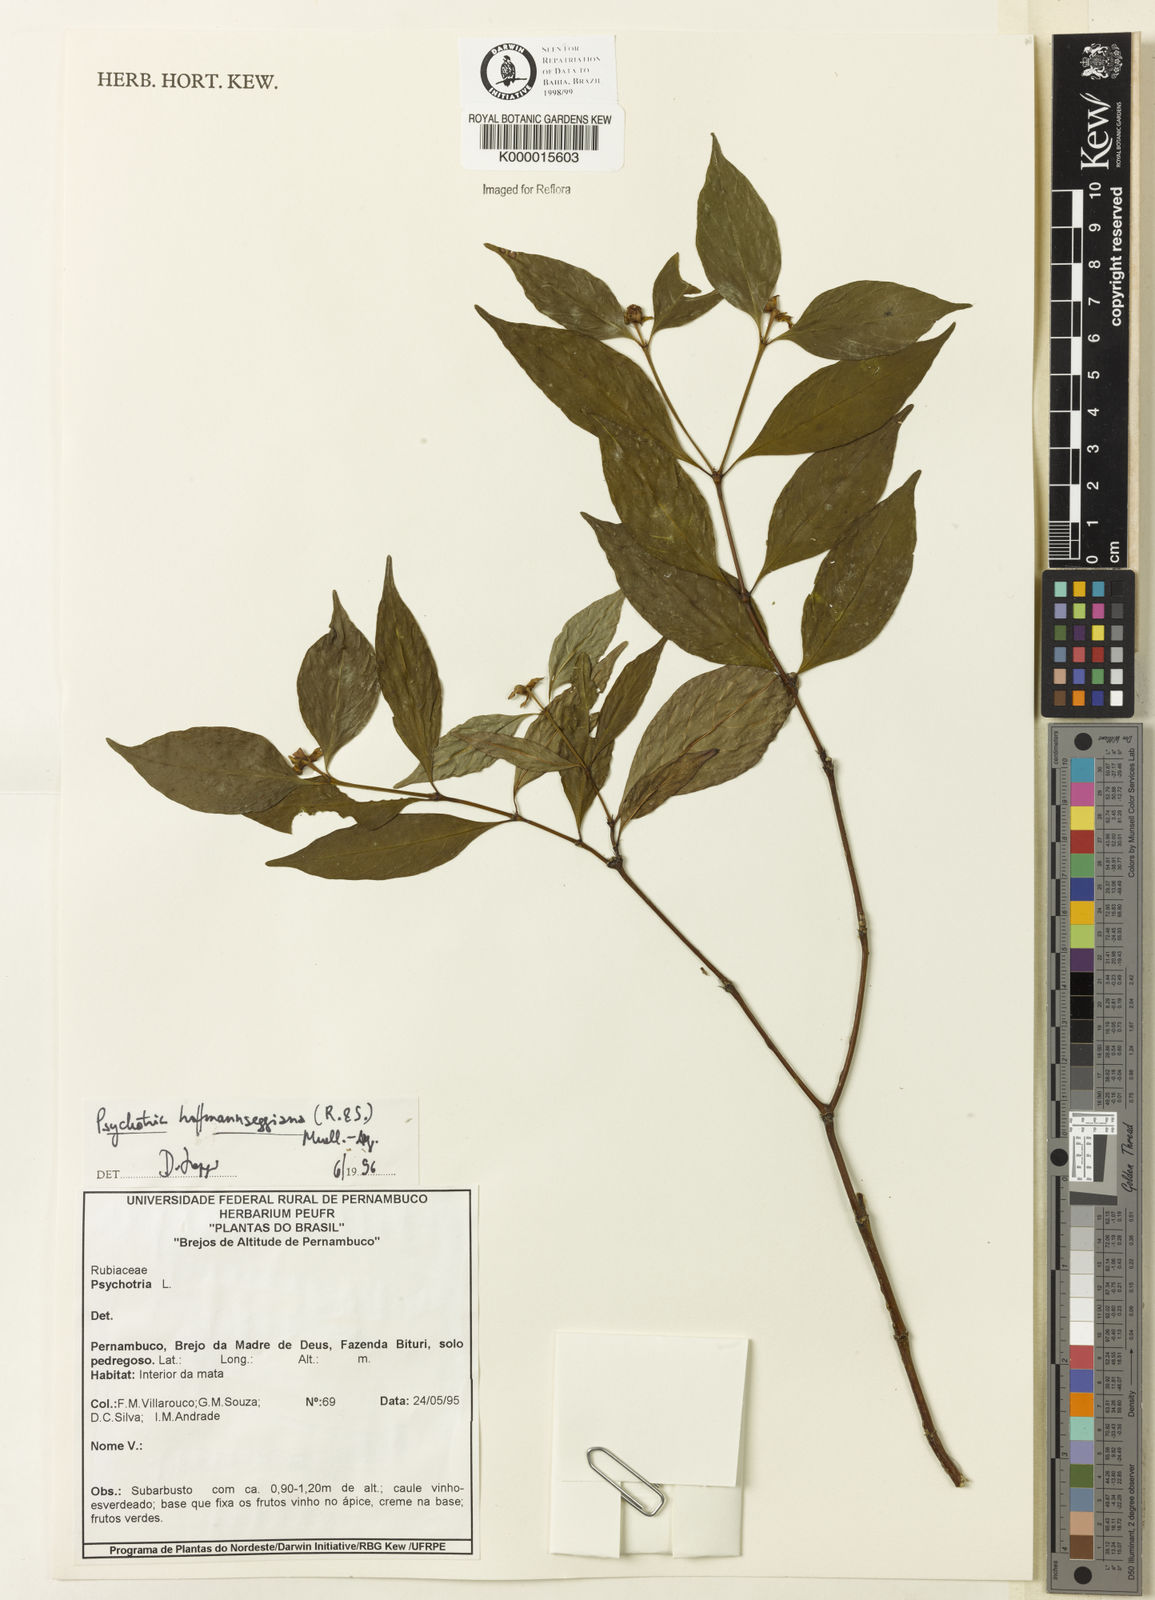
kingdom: Plantae
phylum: Tracheophyta
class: Magnoliopsida
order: Gentianales
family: Rubiaceae
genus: Psychotria
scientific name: Psychotria
